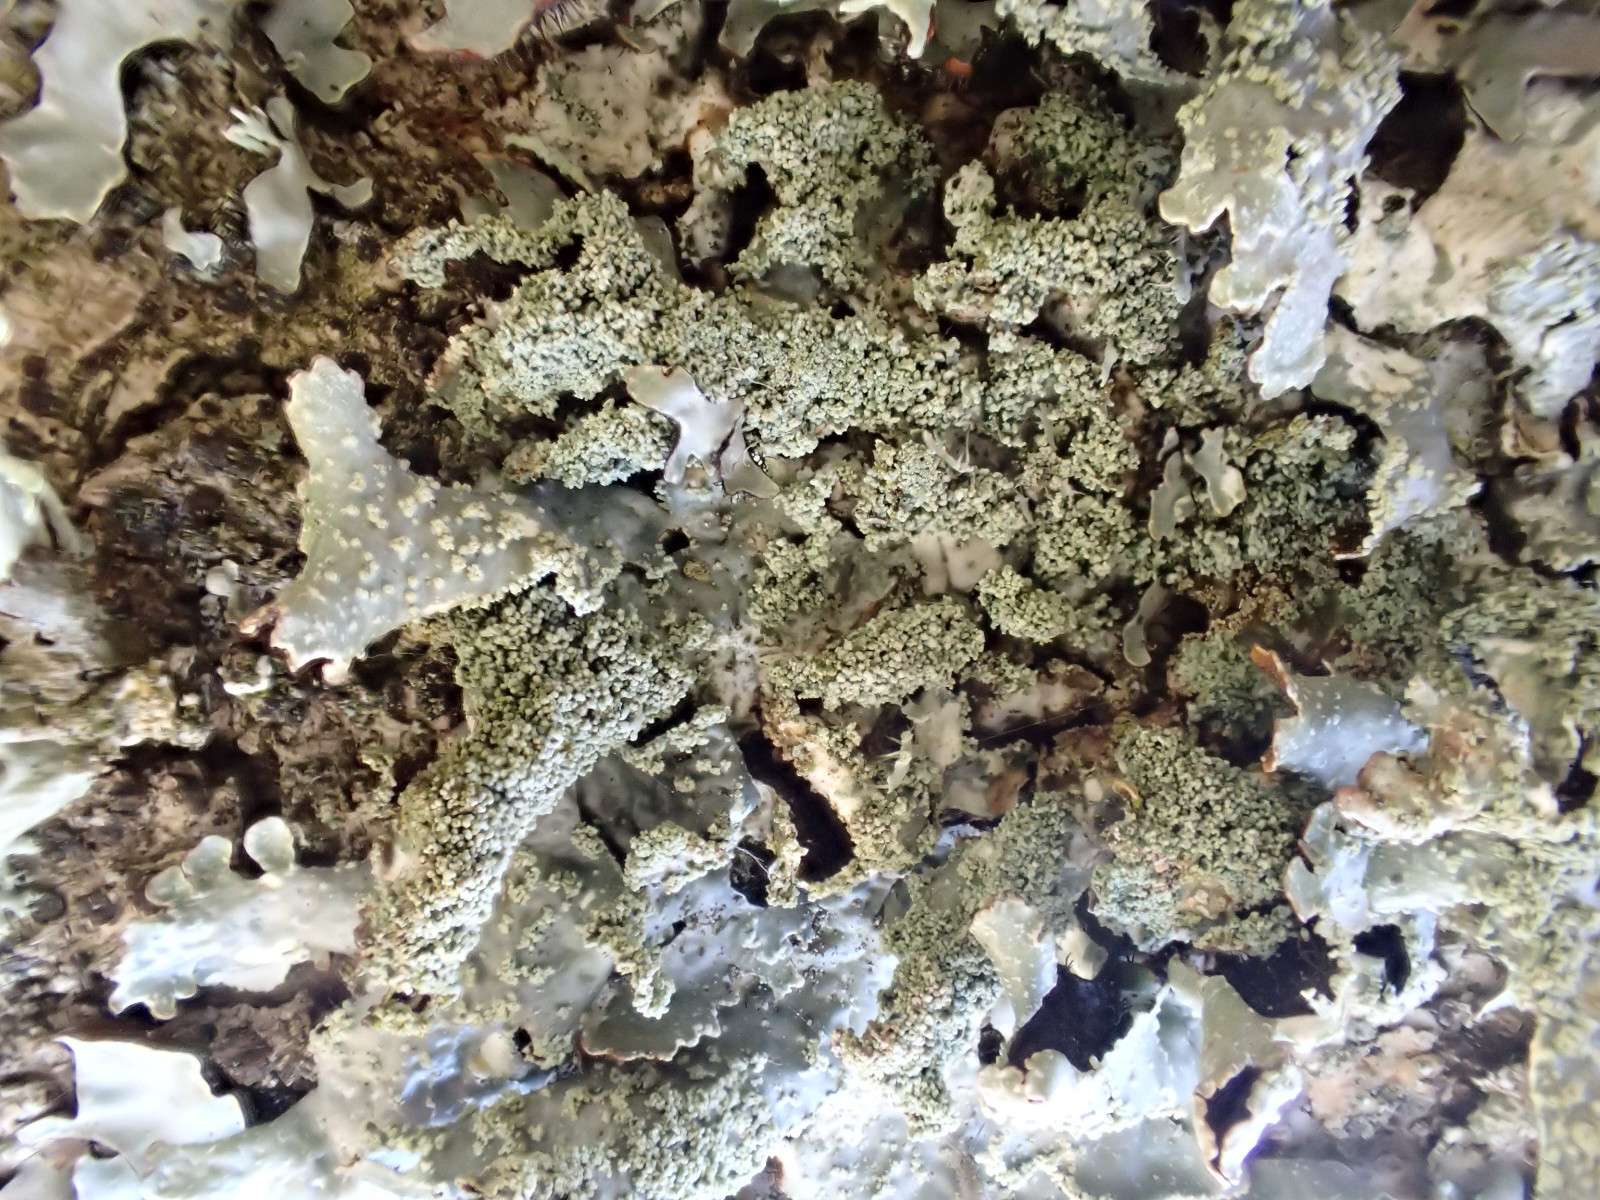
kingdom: Fungi
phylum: Ascomycota
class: Lecanoromycetes
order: Lecanorales
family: Parmeliaceae
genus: Parmelia
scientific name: Parmelia submontana
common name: langlobet skållav
